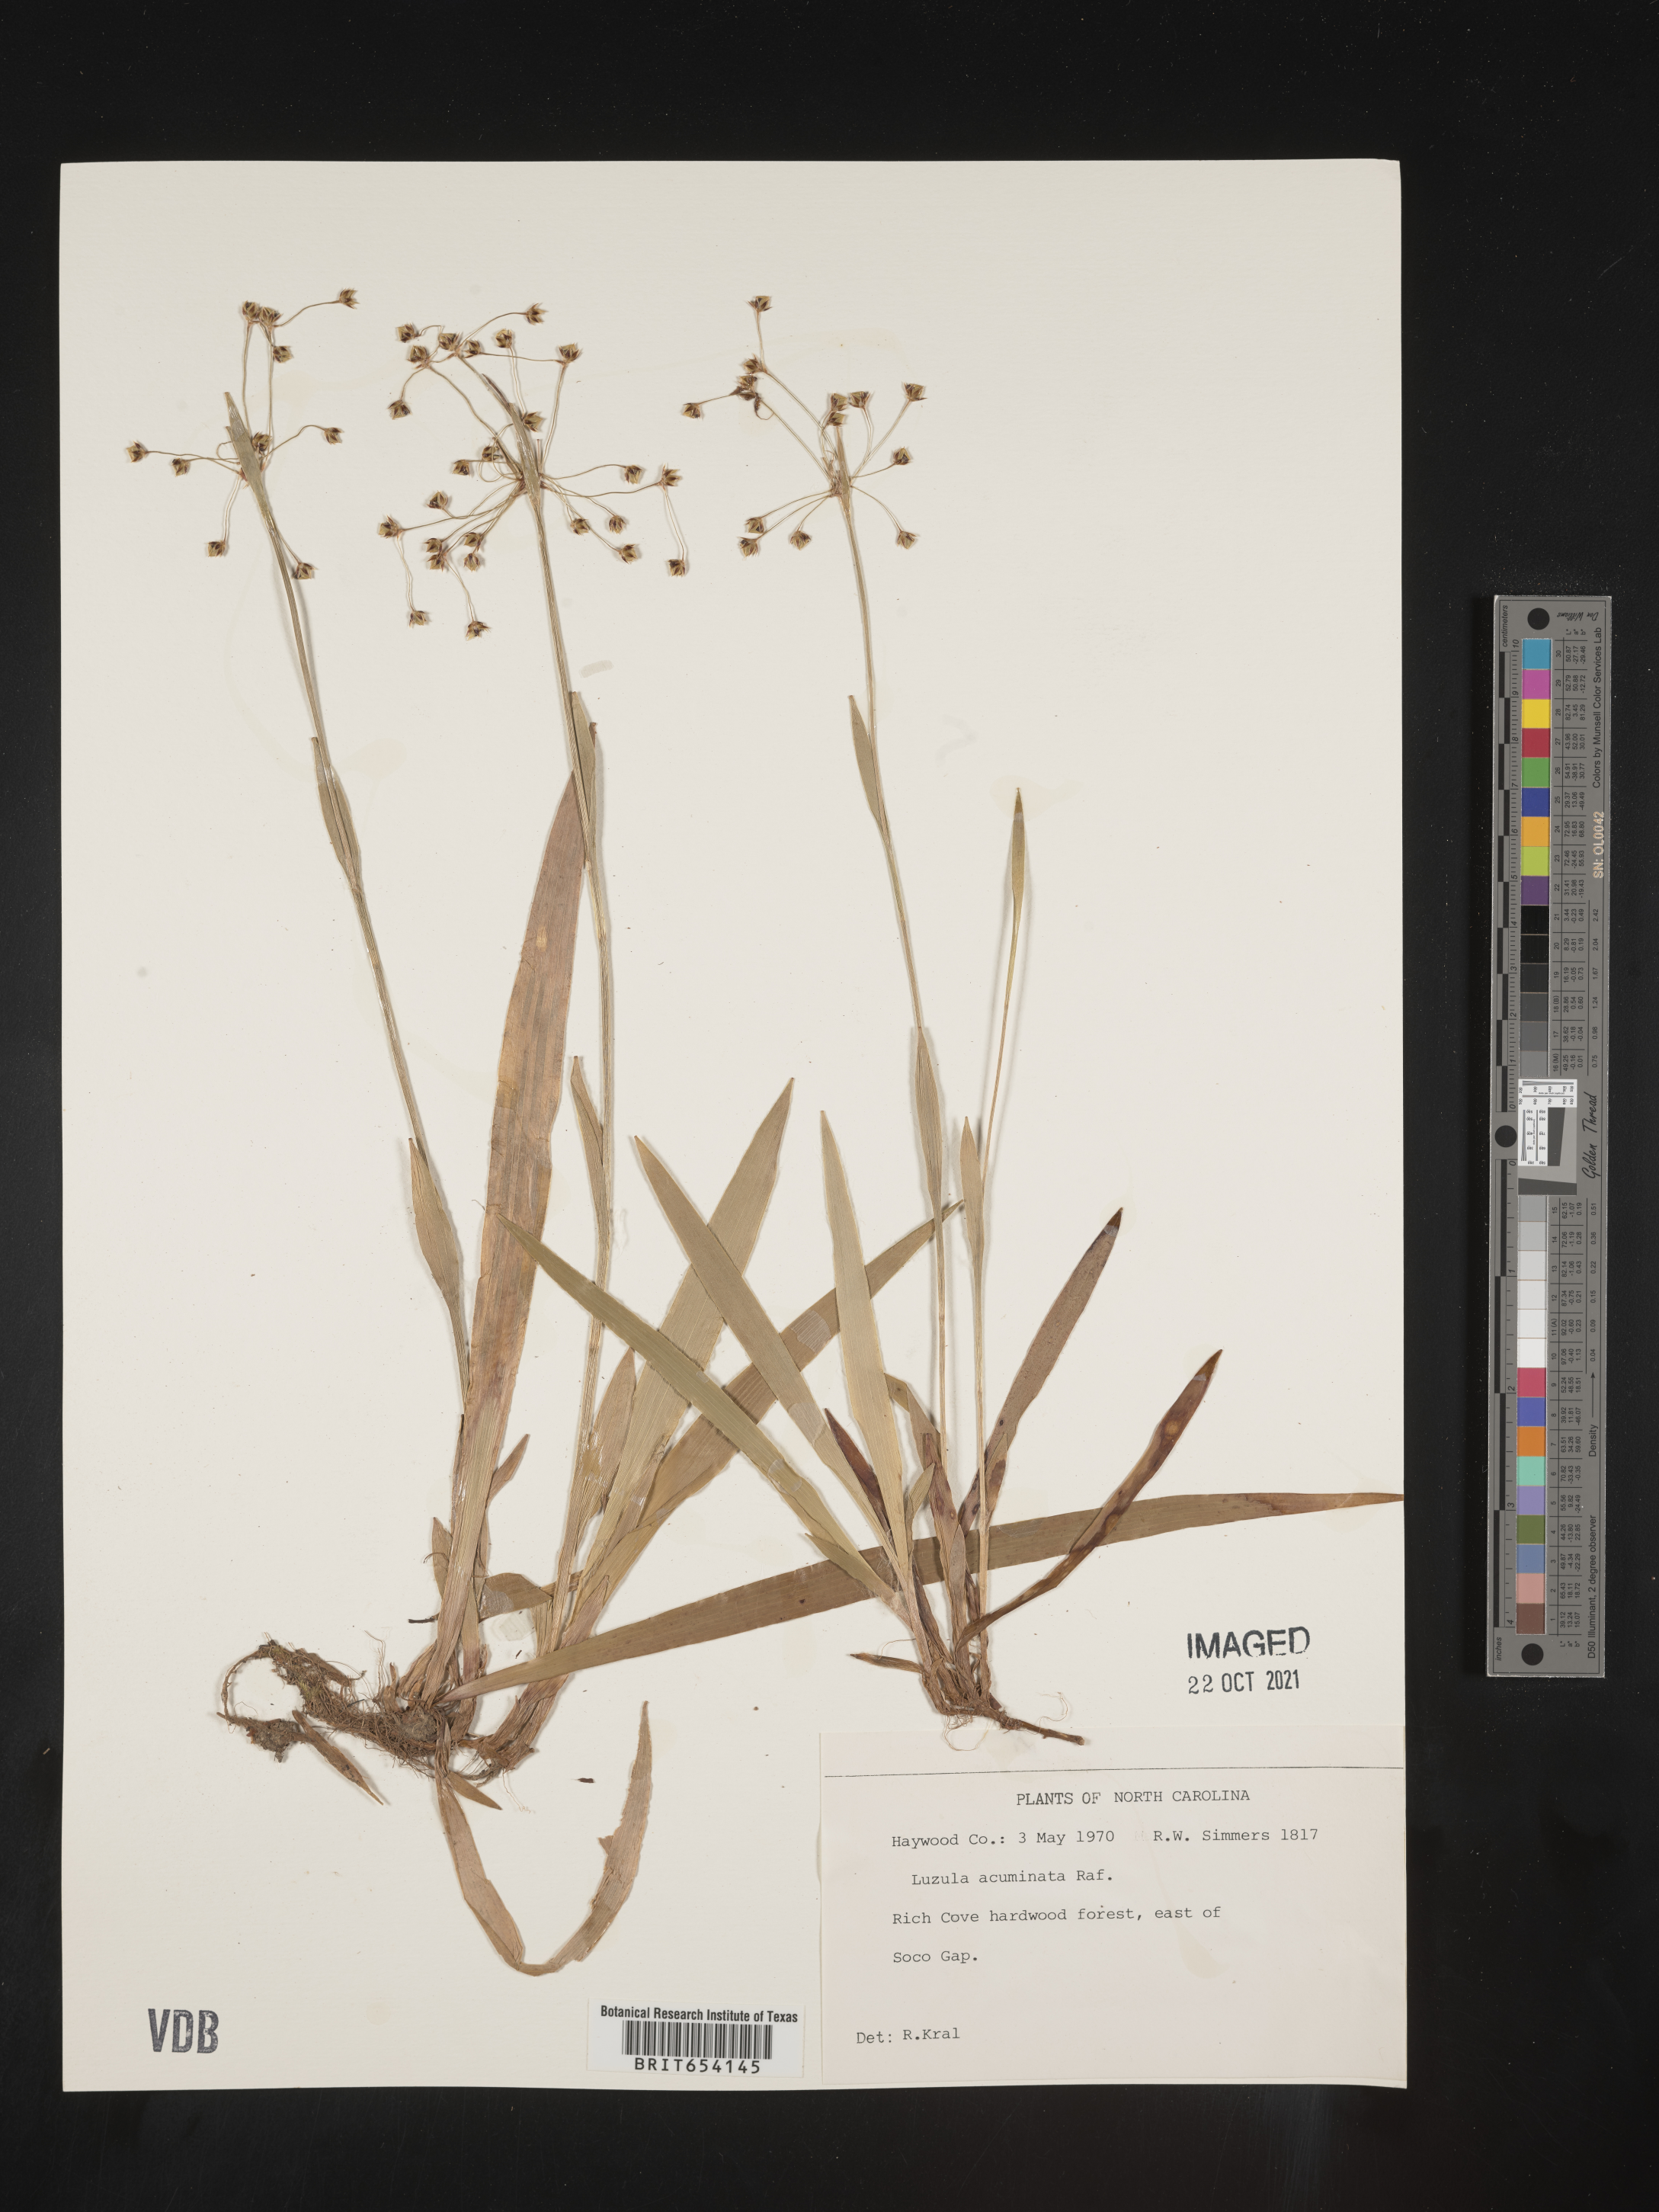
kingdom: Plantae
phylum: Tracheophyta
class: Liliopsida
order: Poales
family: Juncaceae
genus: Luzula
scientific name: Luzula acuminata
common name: Hairy woodrush
